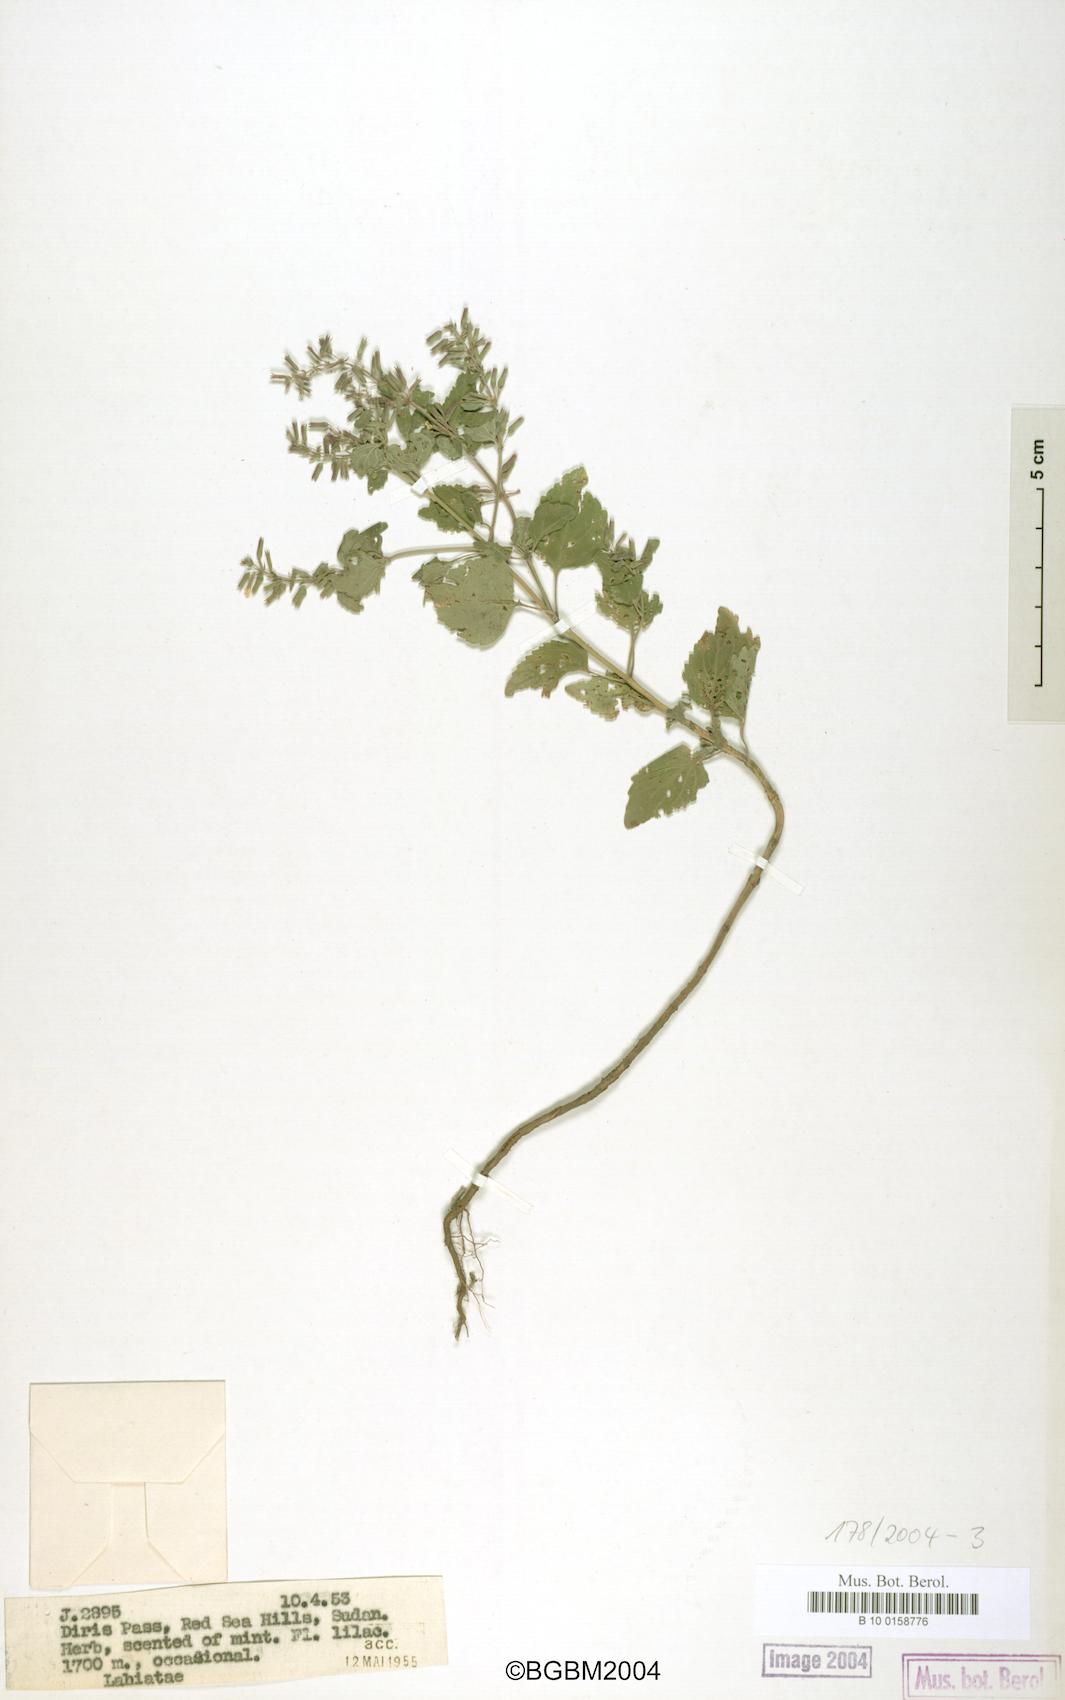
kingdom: Plantae
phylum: Tracheophyta
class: Magnoliopsida
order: Lamiales
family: Lamiaceae
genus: Clinopodium
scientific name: Clinopodium abyssinicum
